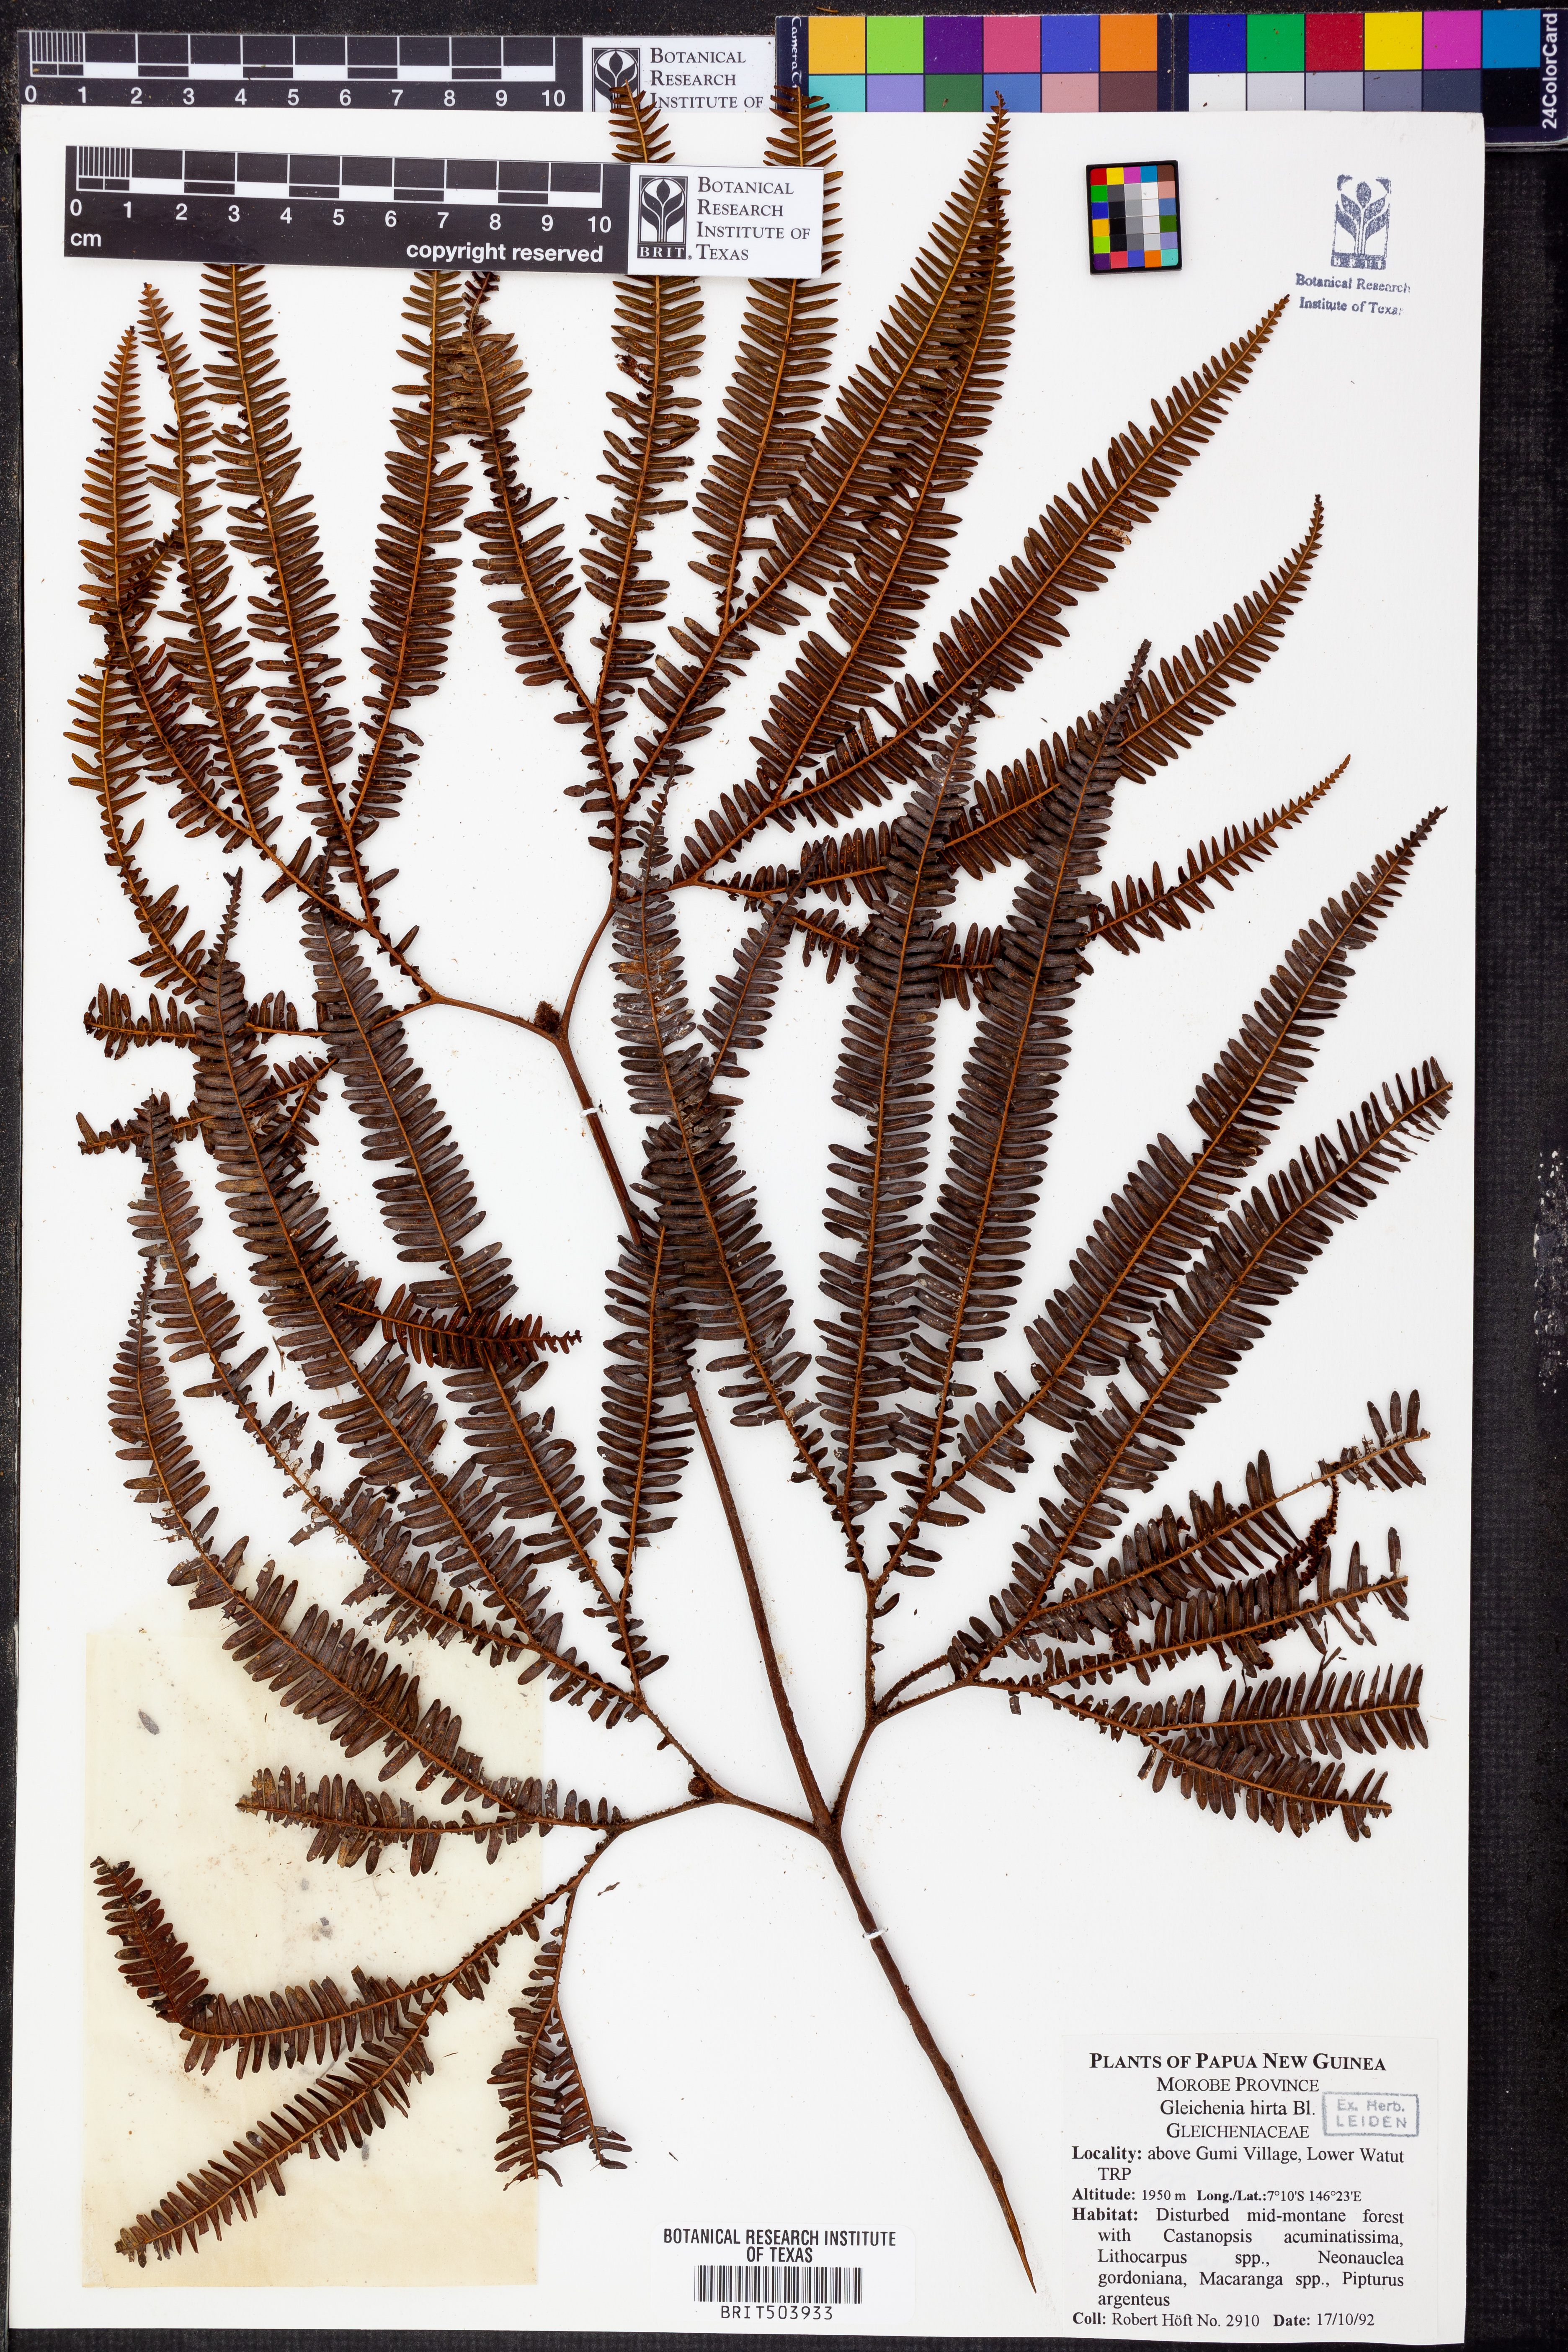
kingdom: Plantae
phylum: Tracheophyta
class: Polypodiopsida
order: Gleicheniales
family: Gleicheniaceae
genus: Sticherus
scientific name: Sticherus hirtus
